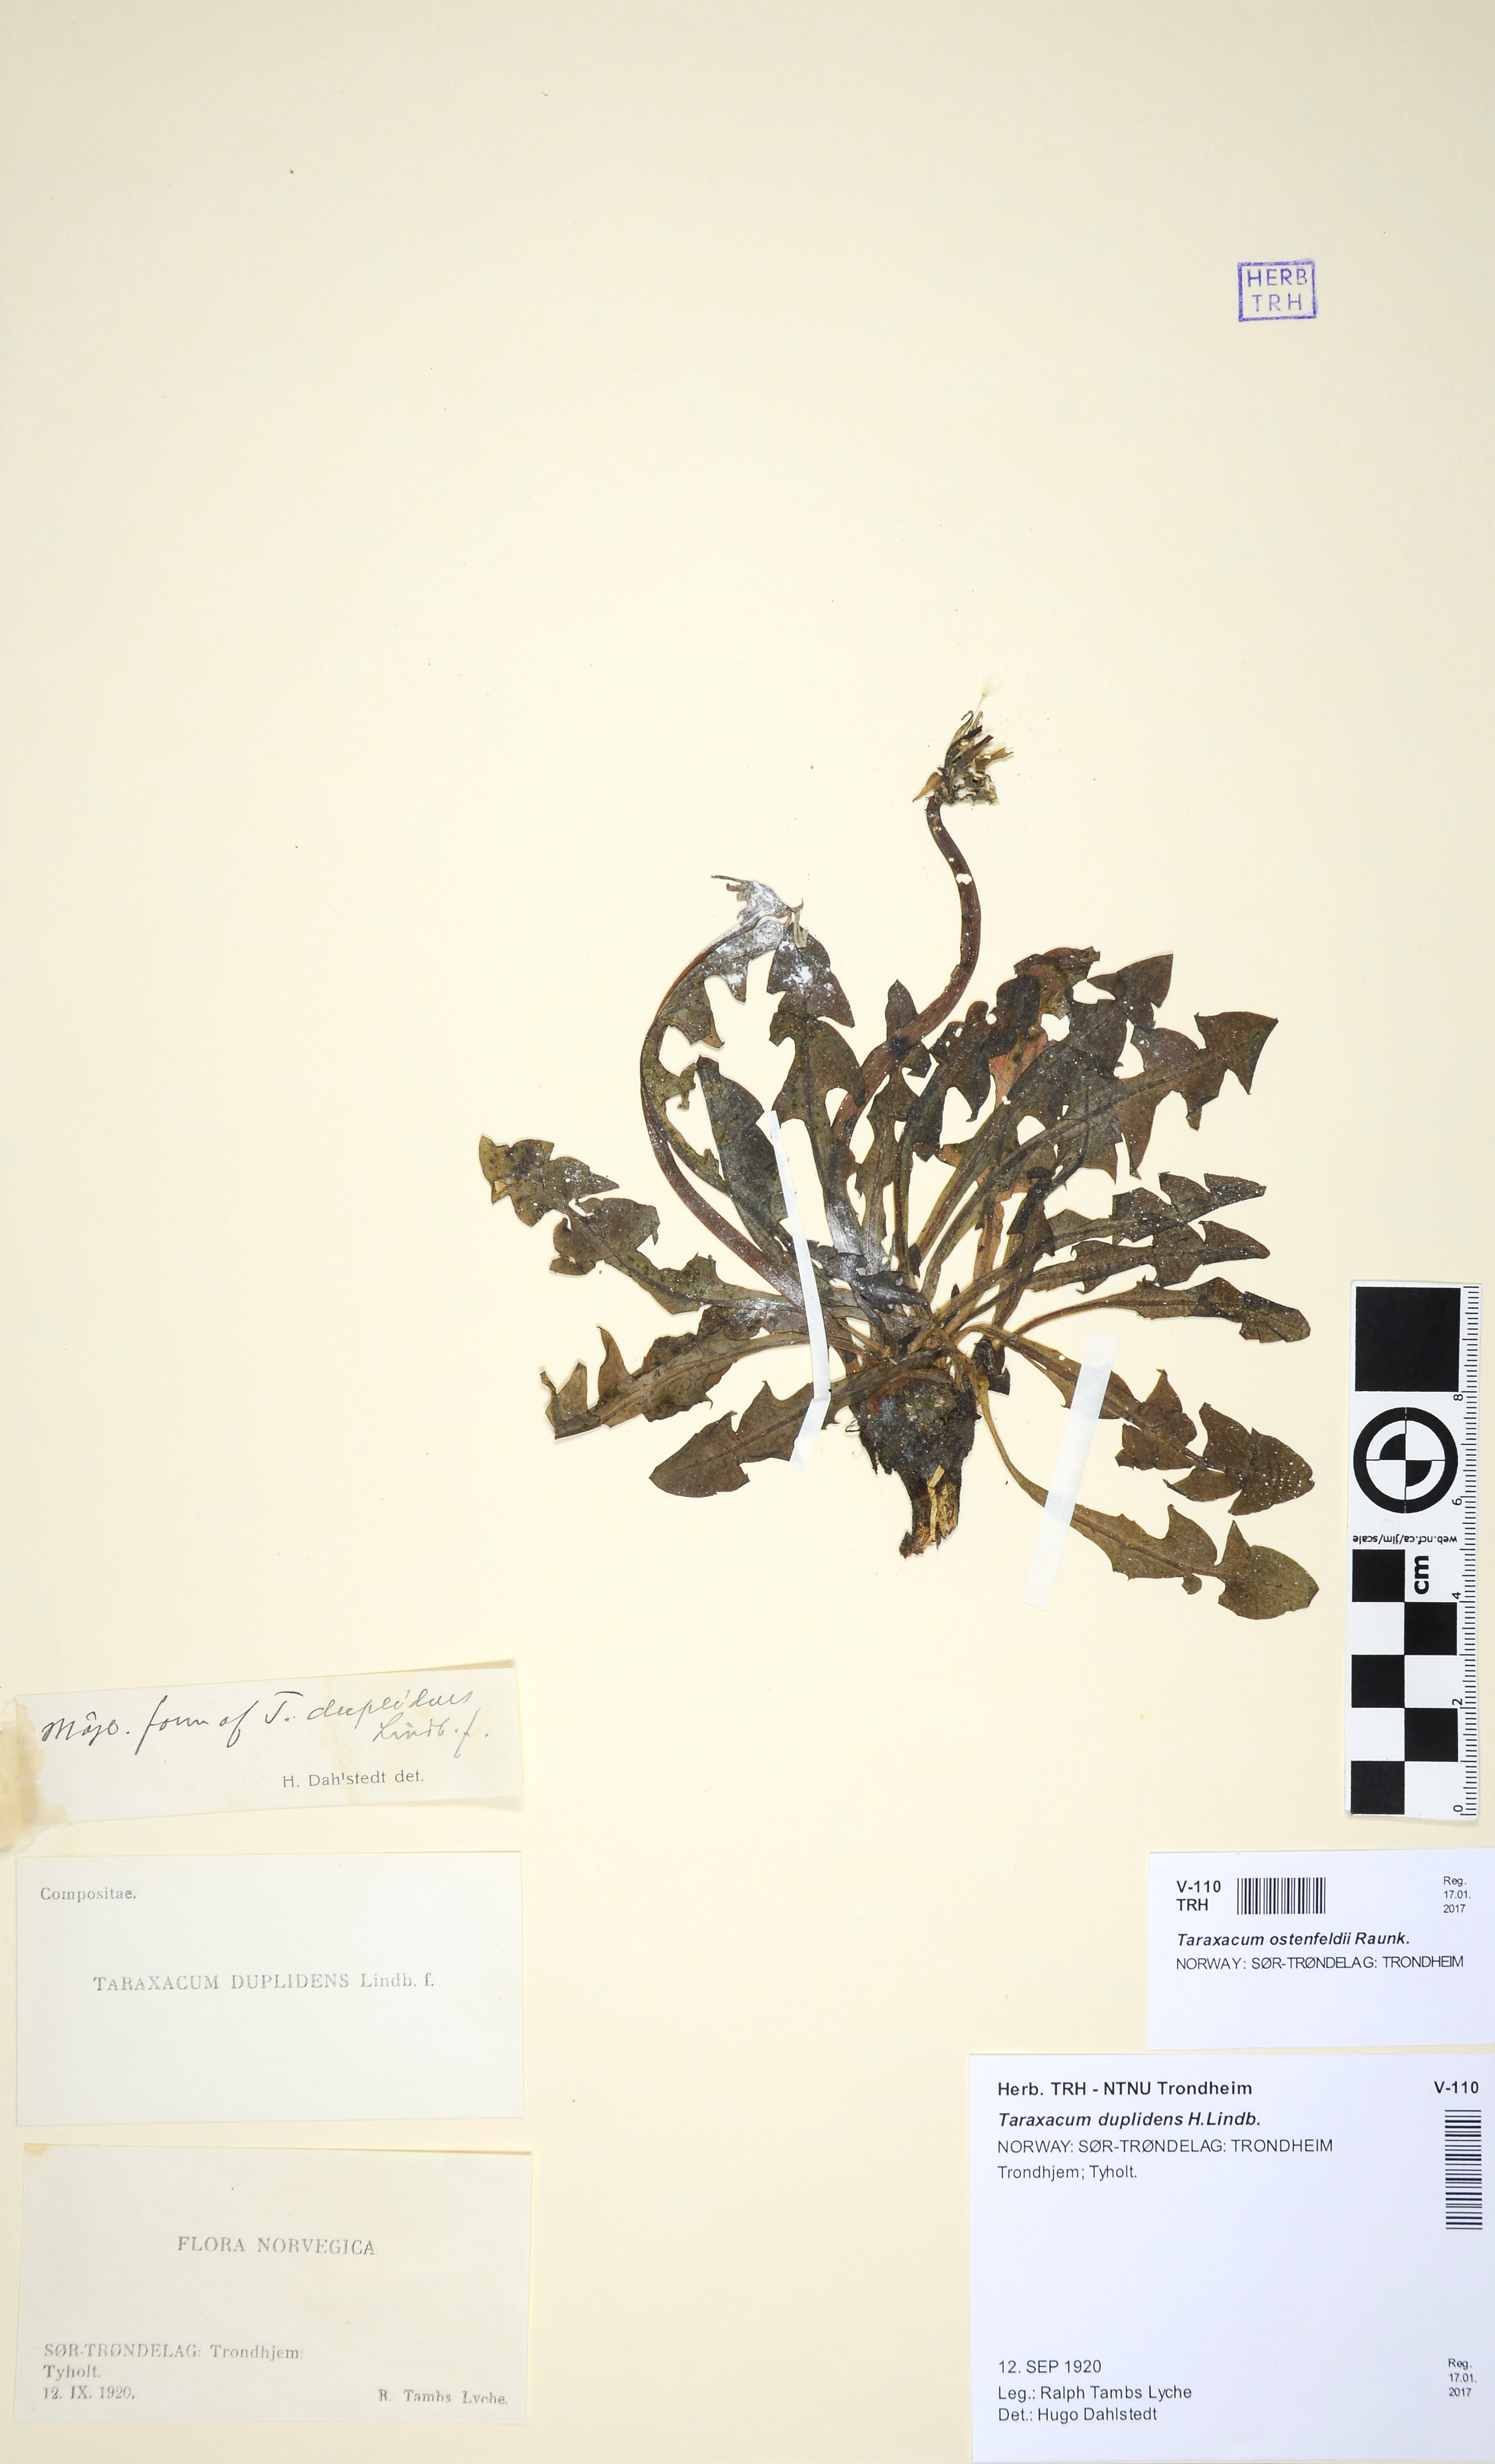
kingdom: Plantae
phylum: Tracheophyta
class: Magnoliopsida
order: Asterales
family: Asteraceae
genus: Taraxacum
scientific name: Taraxacum ostenfeldii
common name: Ostenfeld's dandelion
